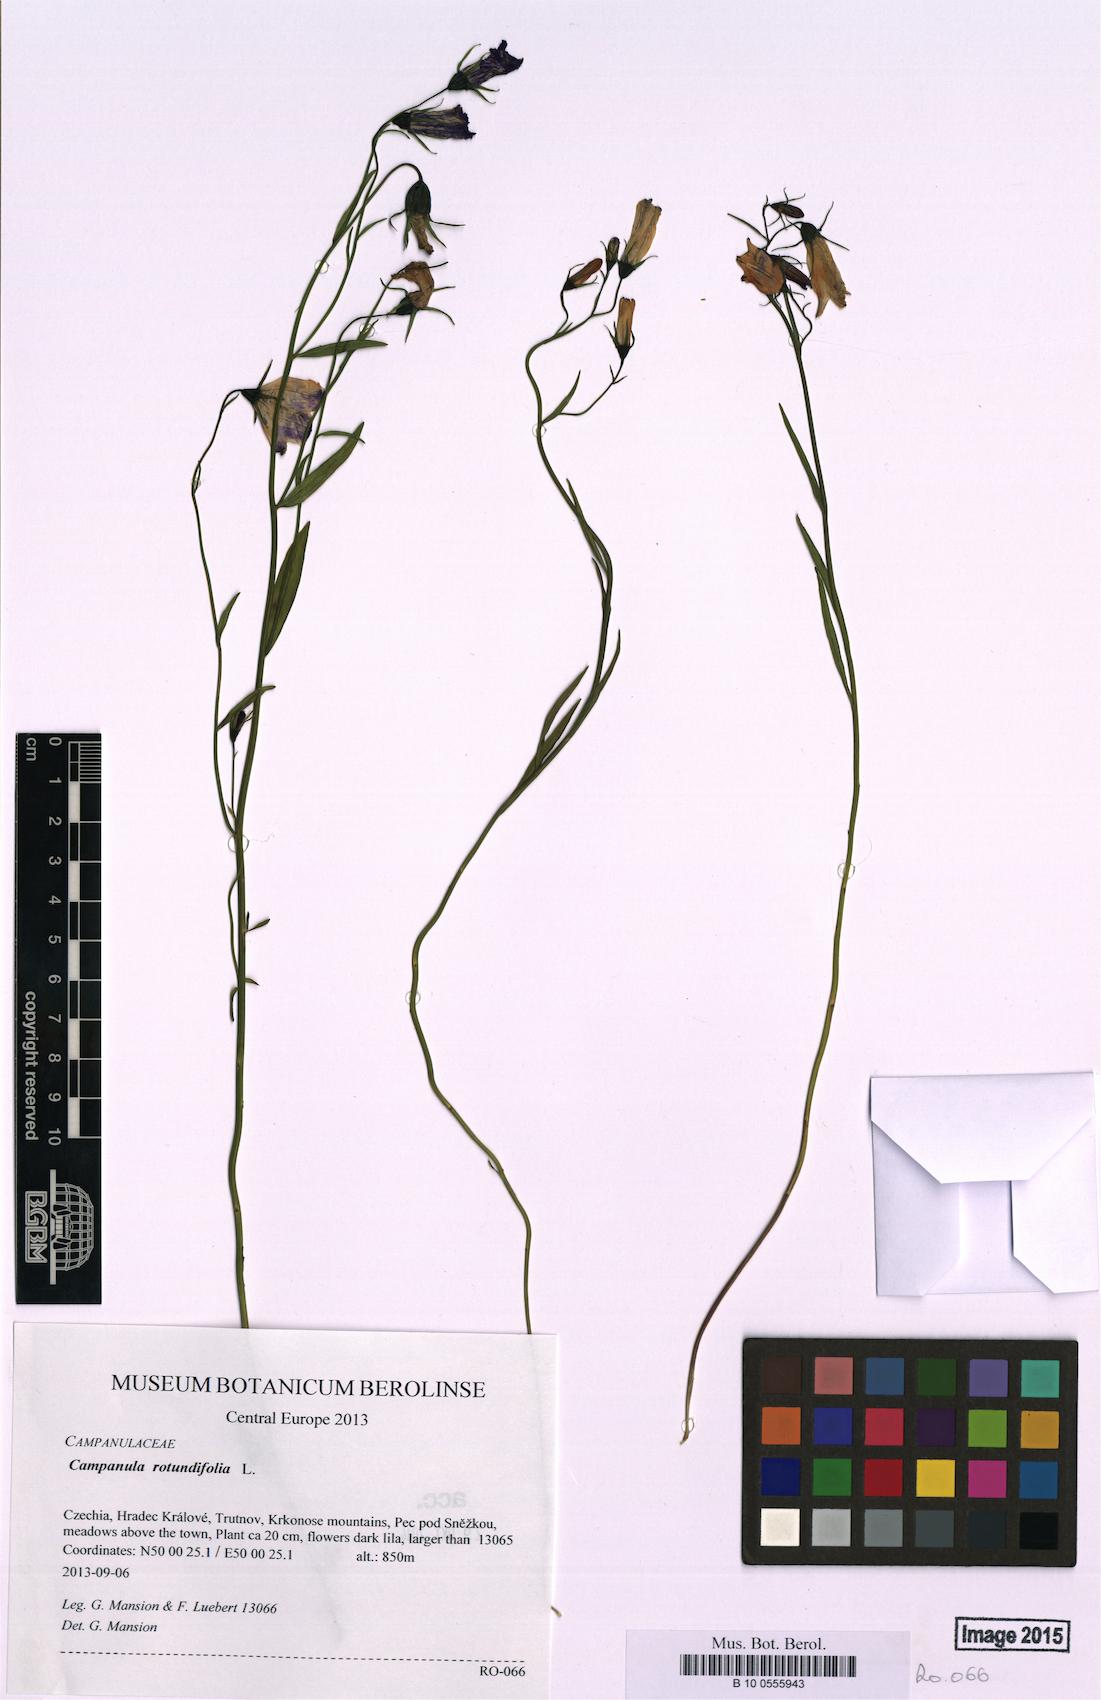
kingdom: Plantae
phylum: Tracheophyta
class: Magnoliopsida
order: Asterales
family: Campanulaceae
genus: Campanula
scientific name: Campanula rotundifolia
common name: Harebell
